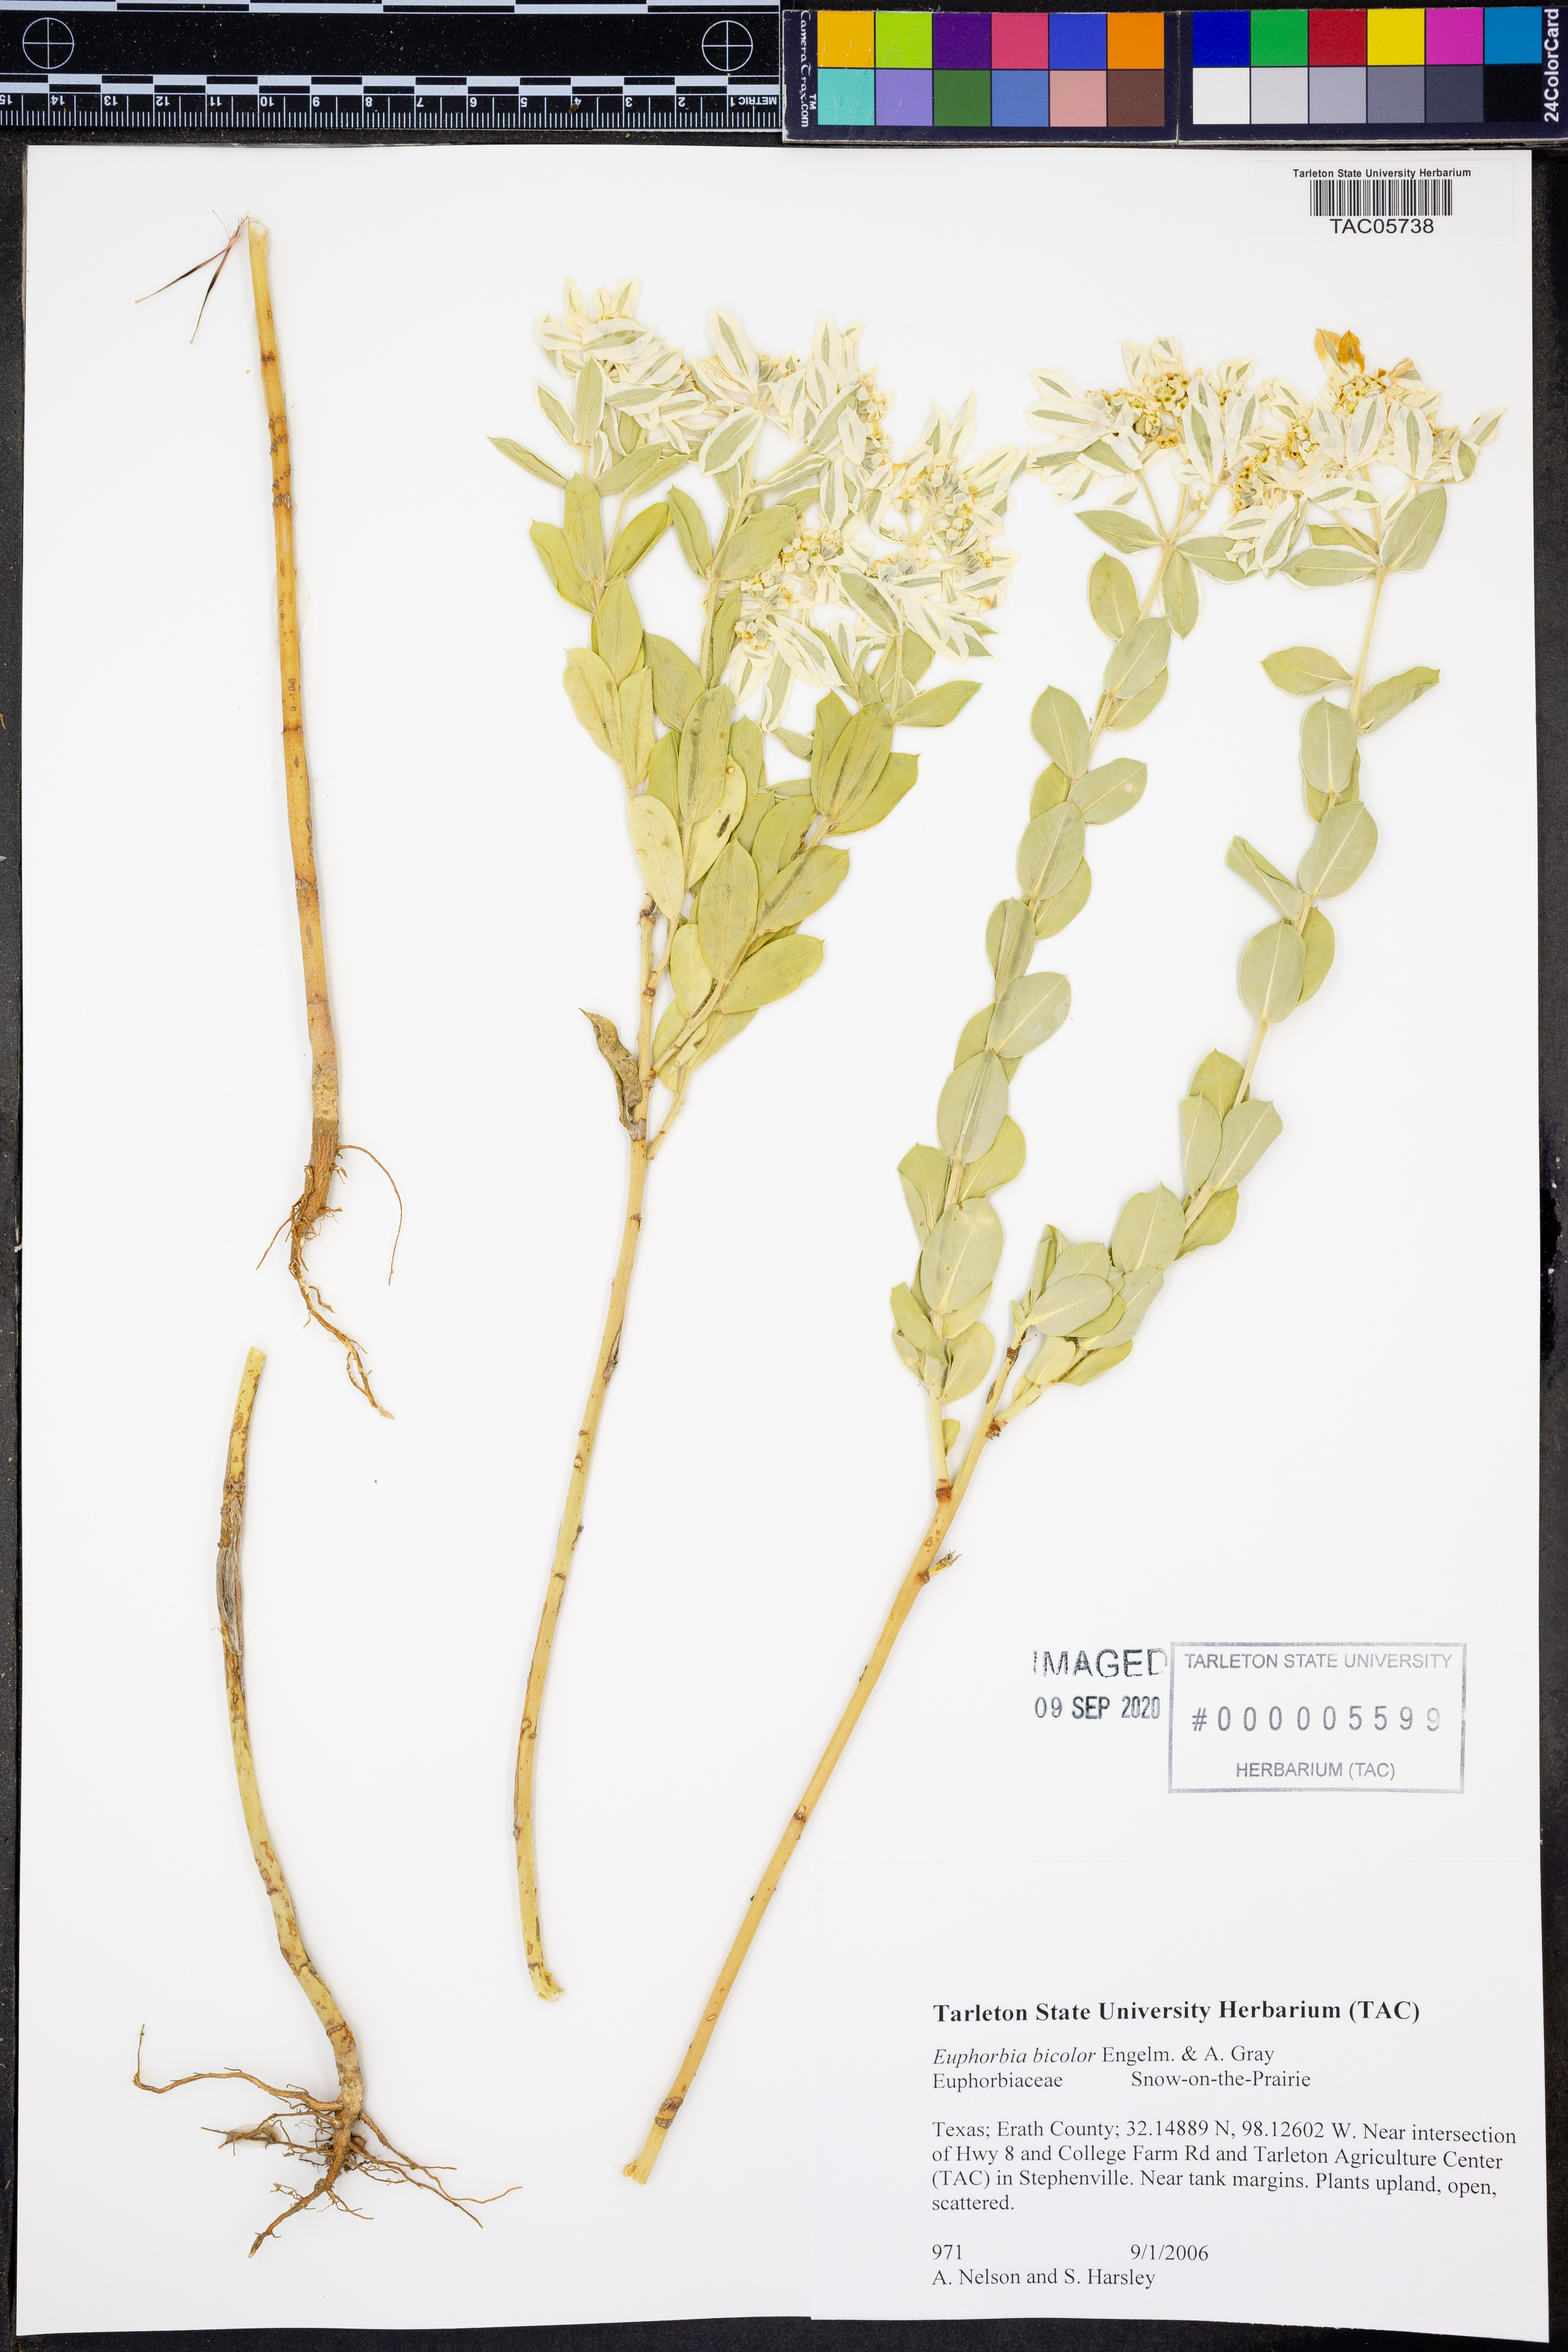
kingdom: Plantae
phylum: Tracheophyta
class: Magnoliopsida
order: Malpighiales
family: Euphorbiaceae
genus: Euphorbia
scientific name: Euphorbia bicolor
